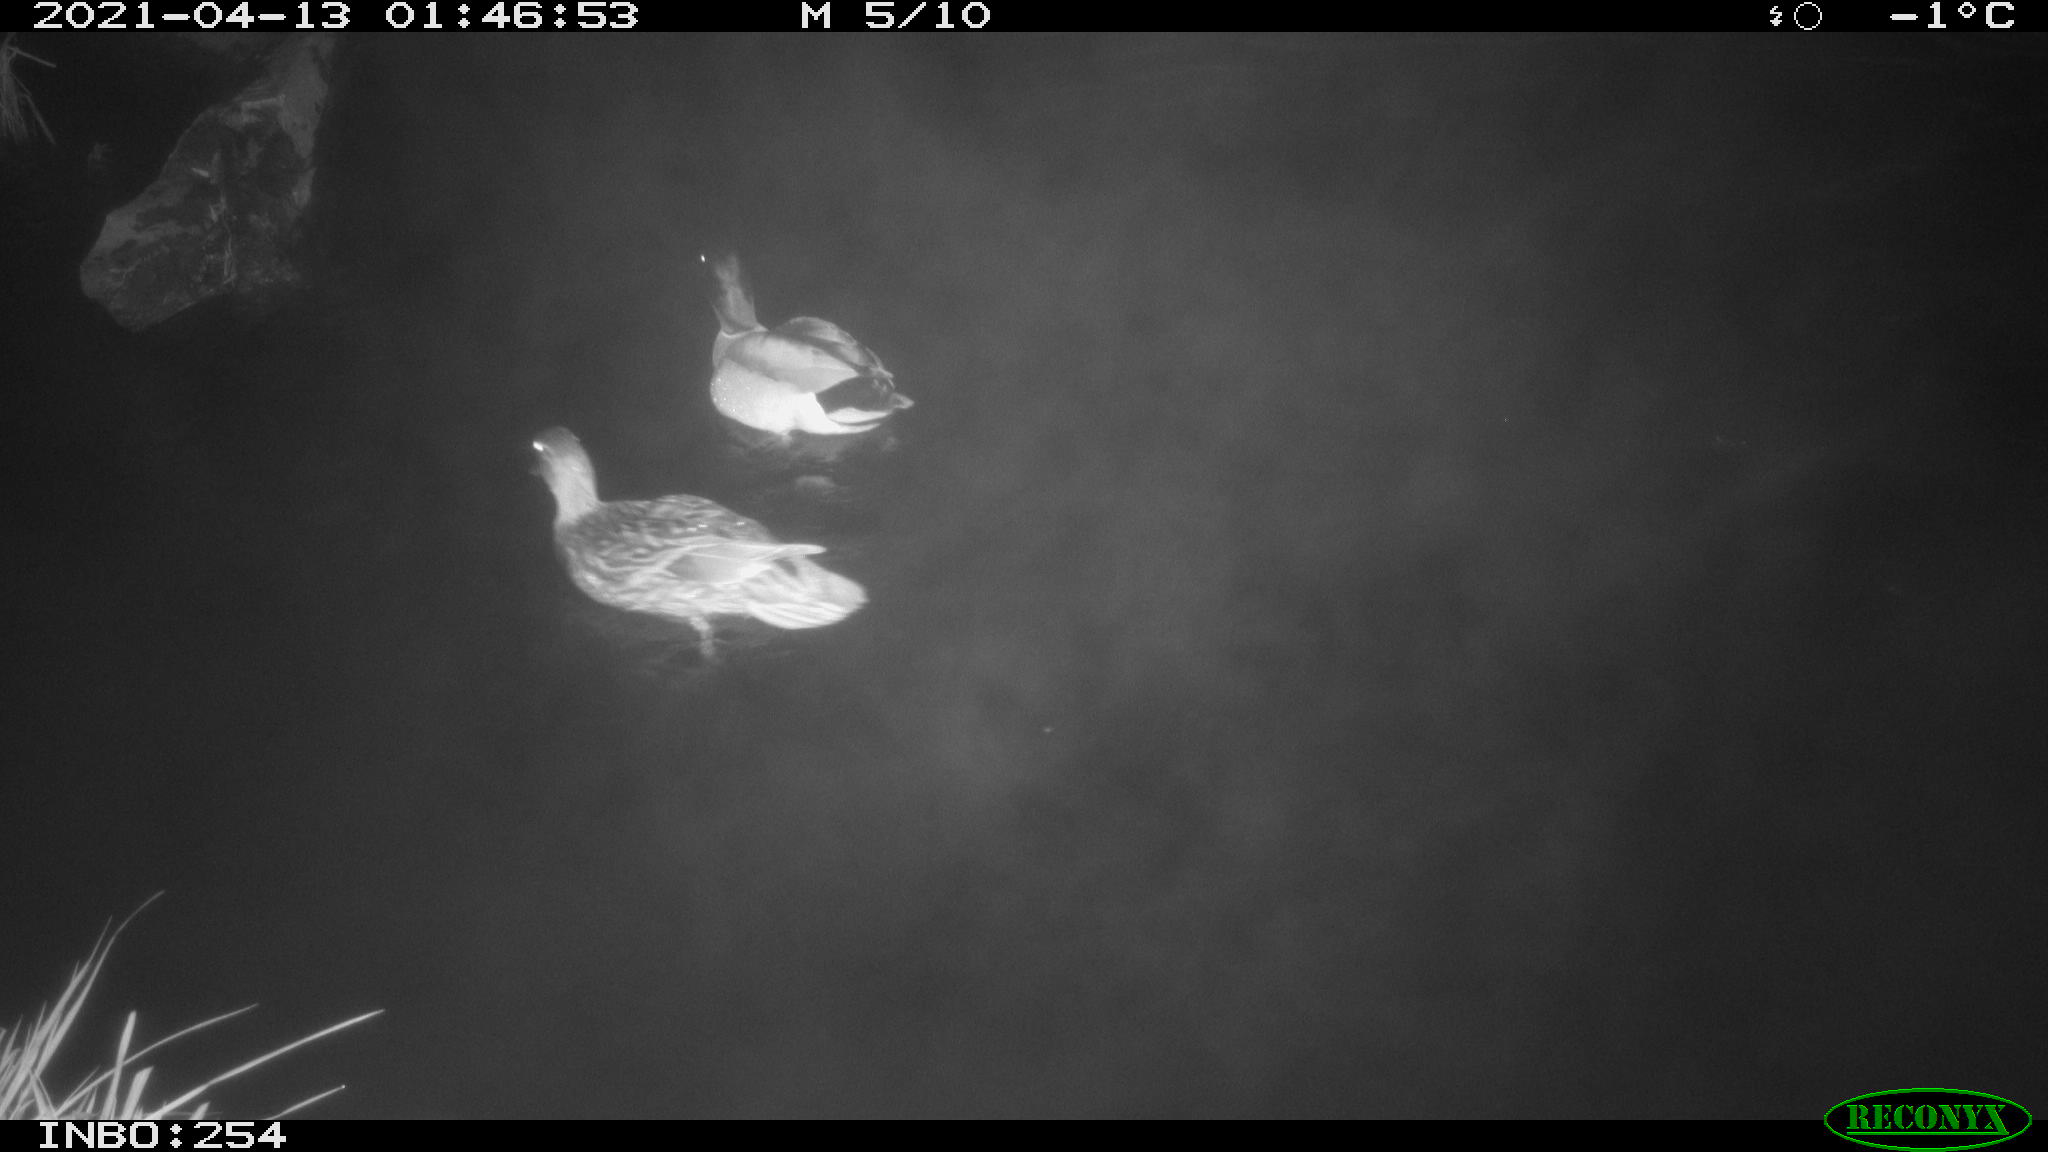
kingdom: Animalia
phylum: Chordata
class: Aves
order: Anseriformes
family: Anatidae
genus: Anas
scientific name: Anas
